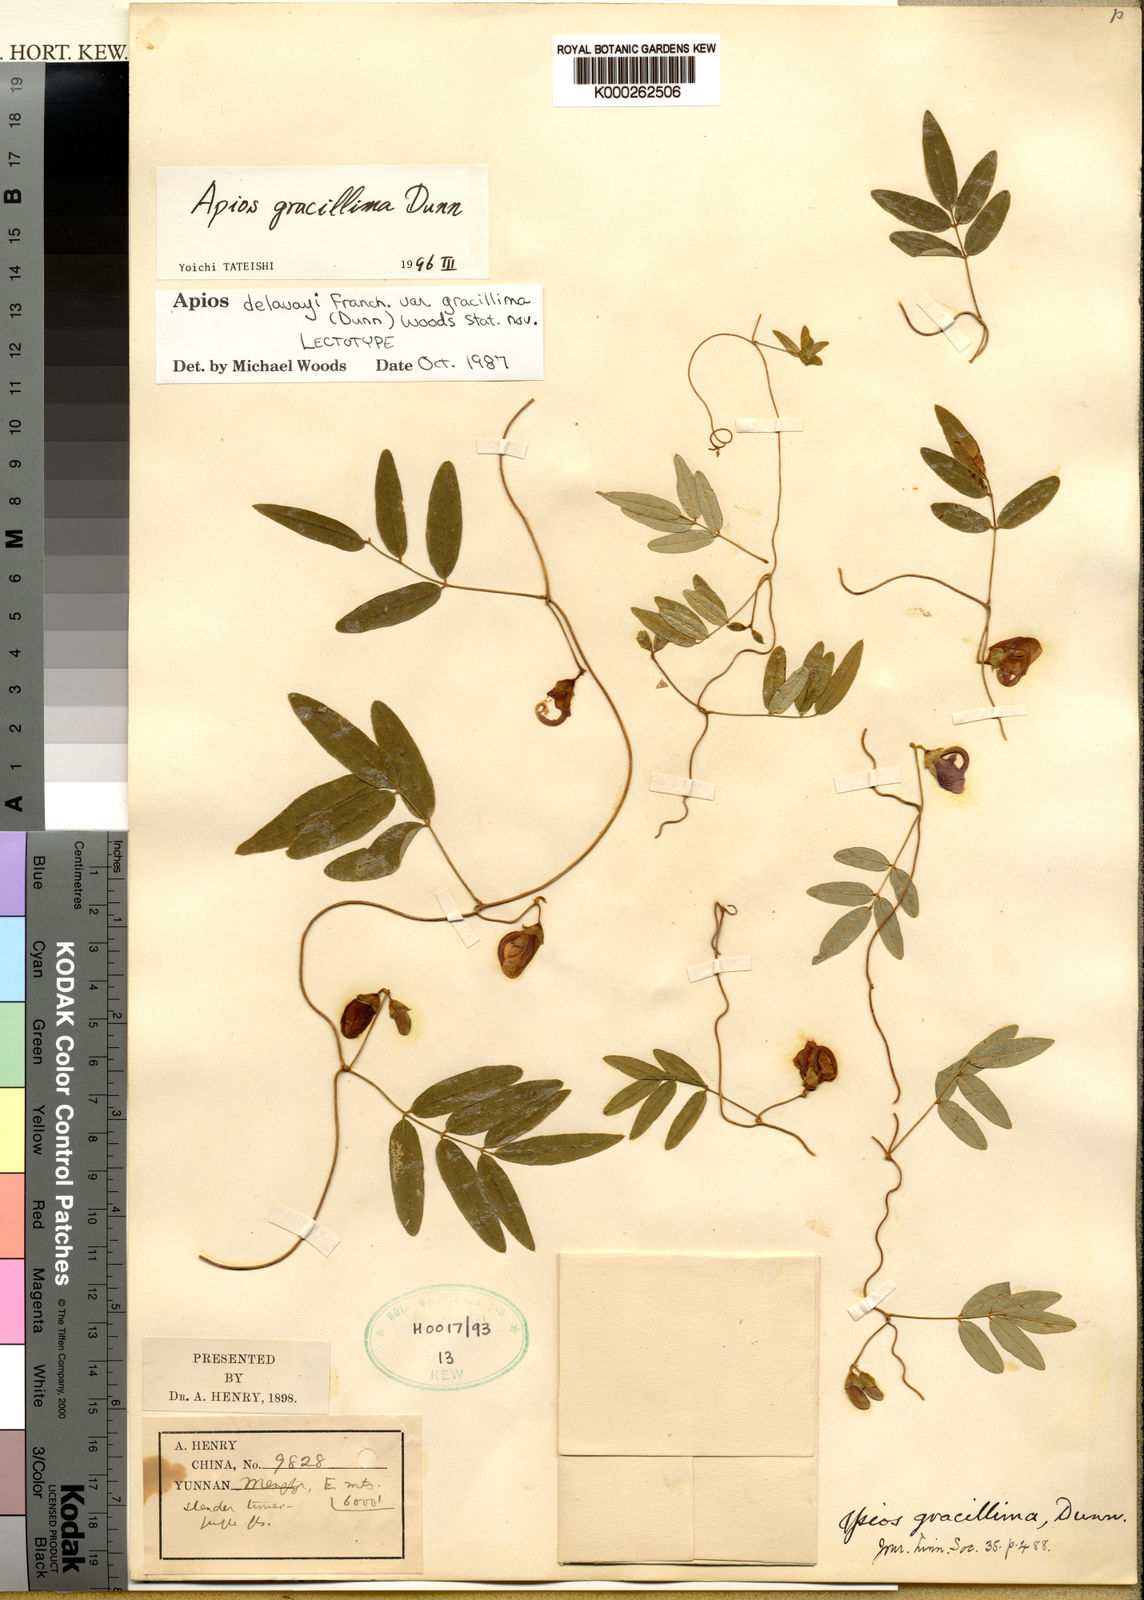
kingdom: Plantae
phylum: Tracheophyta
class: Magnoliopsida
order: Fabales
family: Fabaceae
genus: Apios
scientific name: Apios
